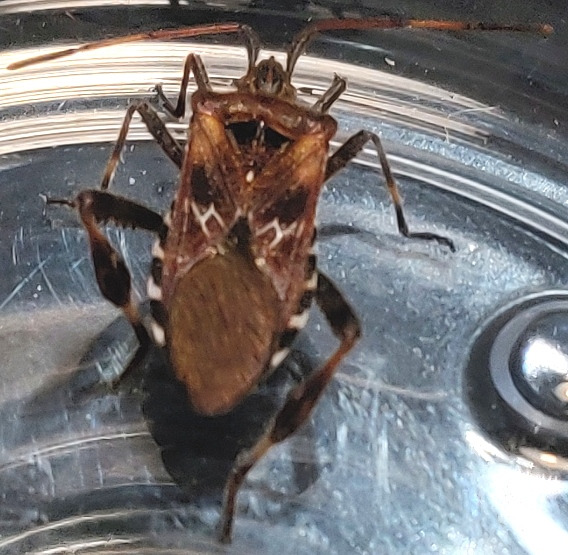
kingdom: Animalia
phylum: Arthropoda
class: Insecta
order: Hemiptera
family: Coreidae
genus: Leptoglossus
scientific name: Leptoglossus occidentalis
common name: Amerikansk fyrretæge
